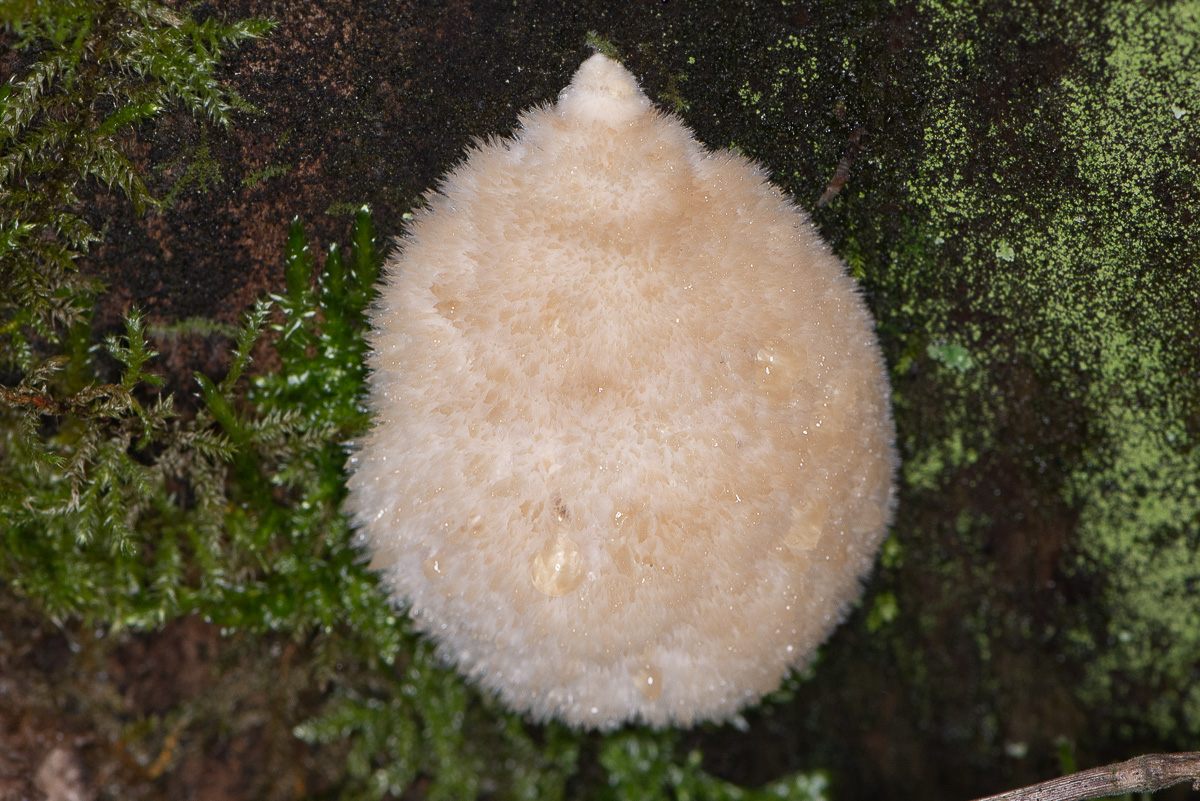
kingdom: Fungi
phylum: Basidiomycota
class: Agaricomycetes
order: Polyporales
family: Dacryobolaceae
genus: Postia
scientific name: Postia ptychogaster
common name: støvende kødporesvamp
